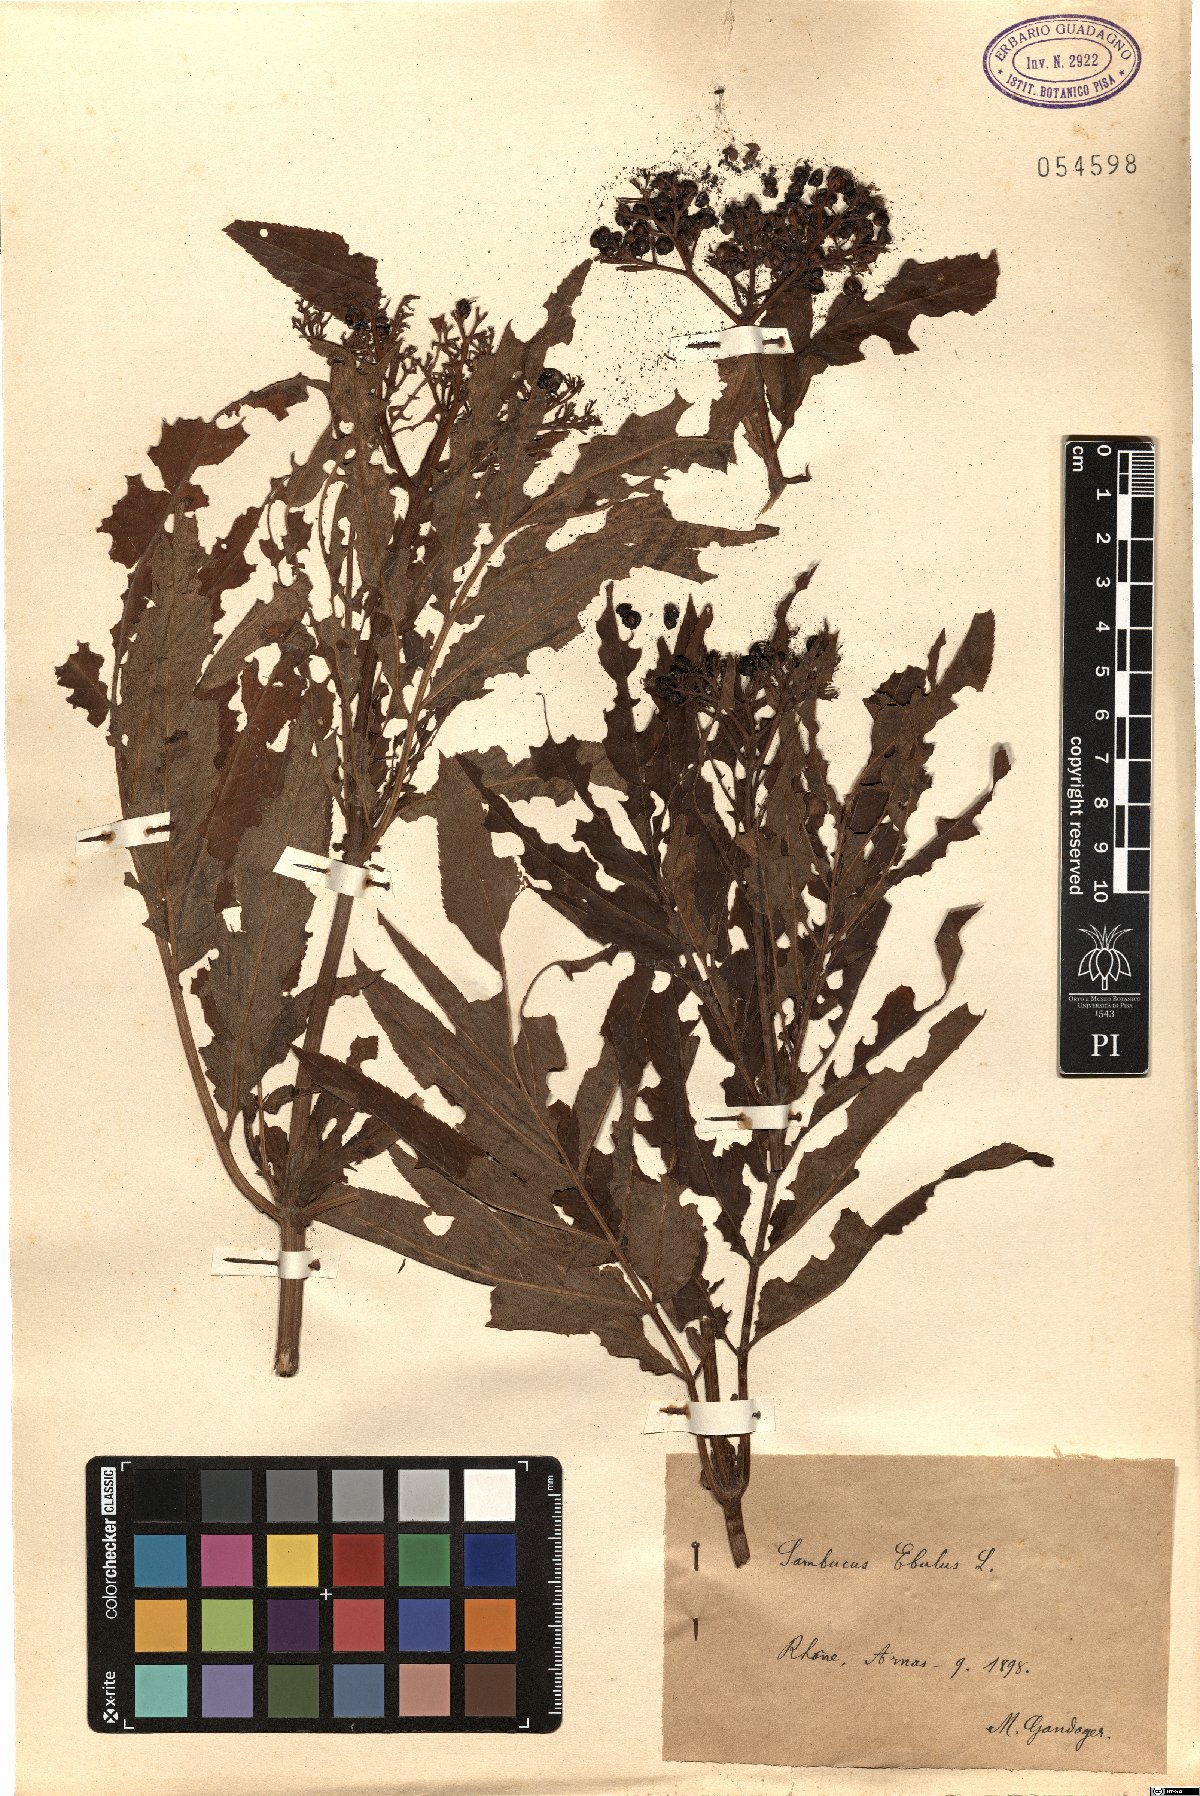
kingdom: Plantae
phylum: Tracheophyta
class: Magnoliopsida
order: Dipsacales
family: Viburnaceae
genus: Sambucus
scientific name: Sambucus ebulus
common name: Dwarf elder
